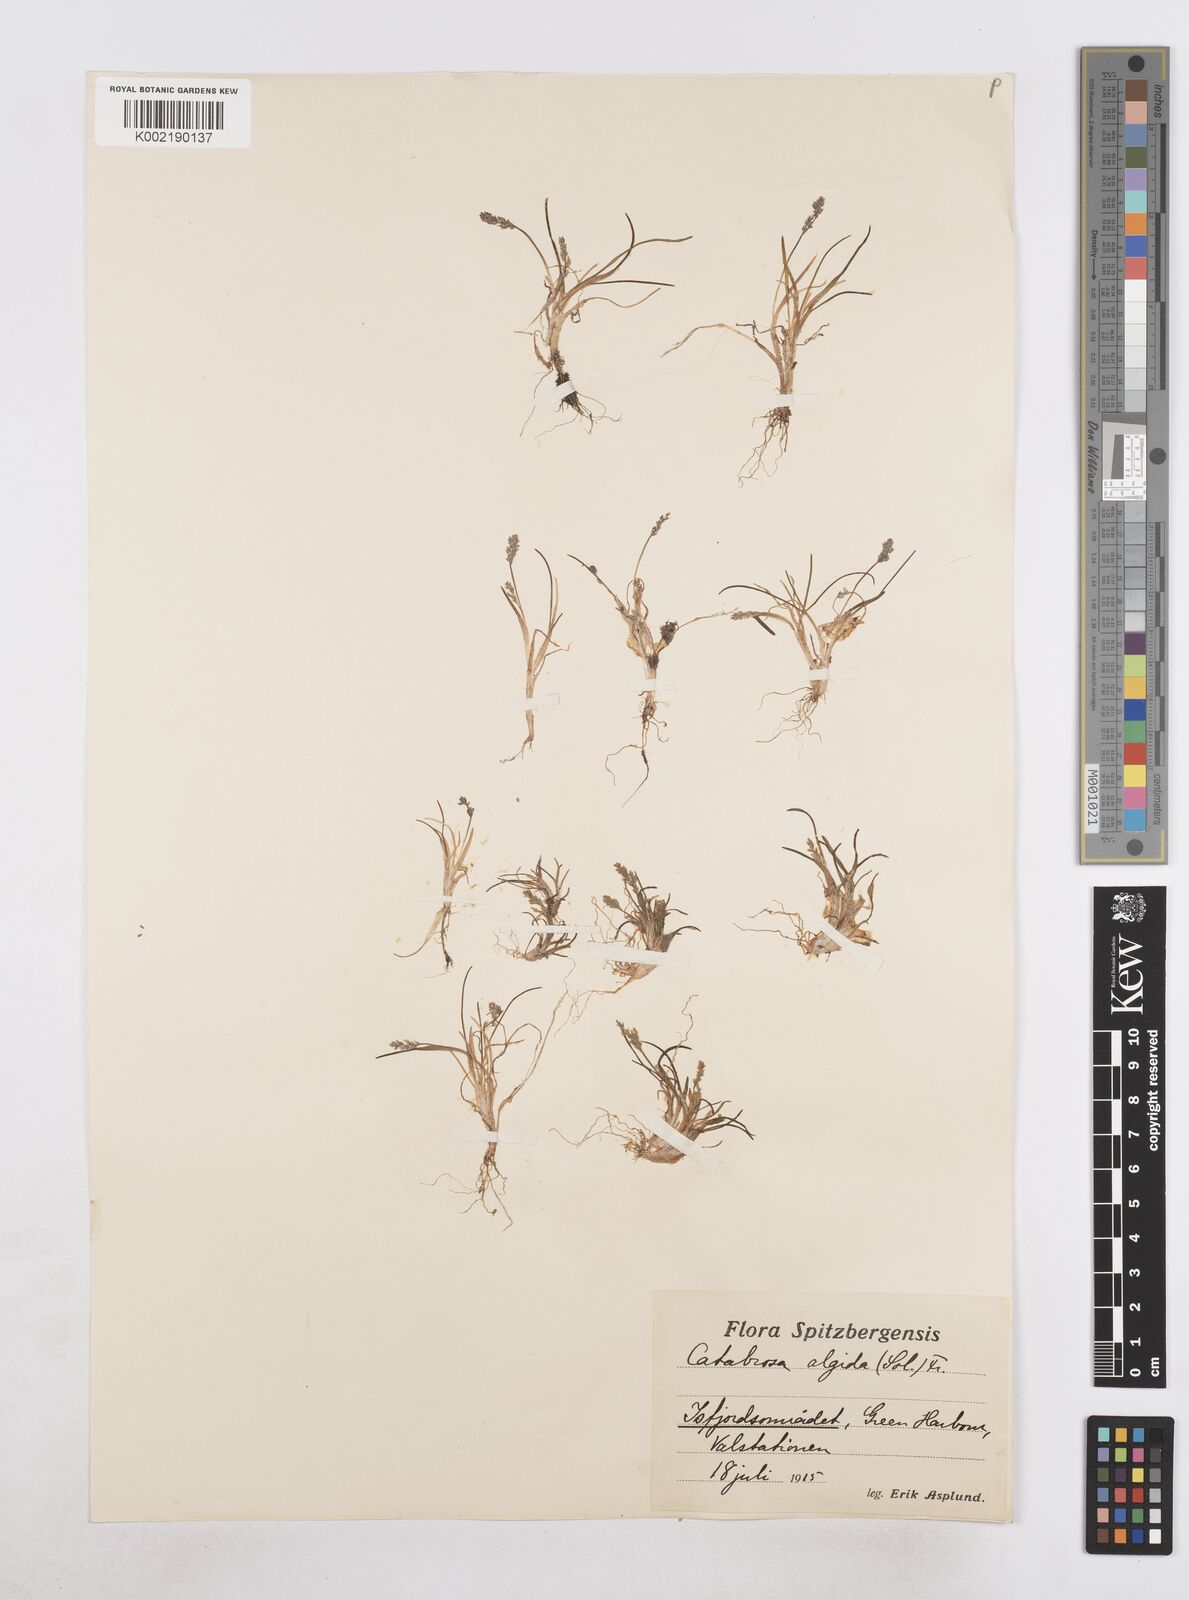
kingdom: Plantae
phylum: Tracheophyta
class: Liliopsida
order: Poales
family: Poaceae
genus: Phippsia
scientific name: Phippsia algida
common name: Ice grass
